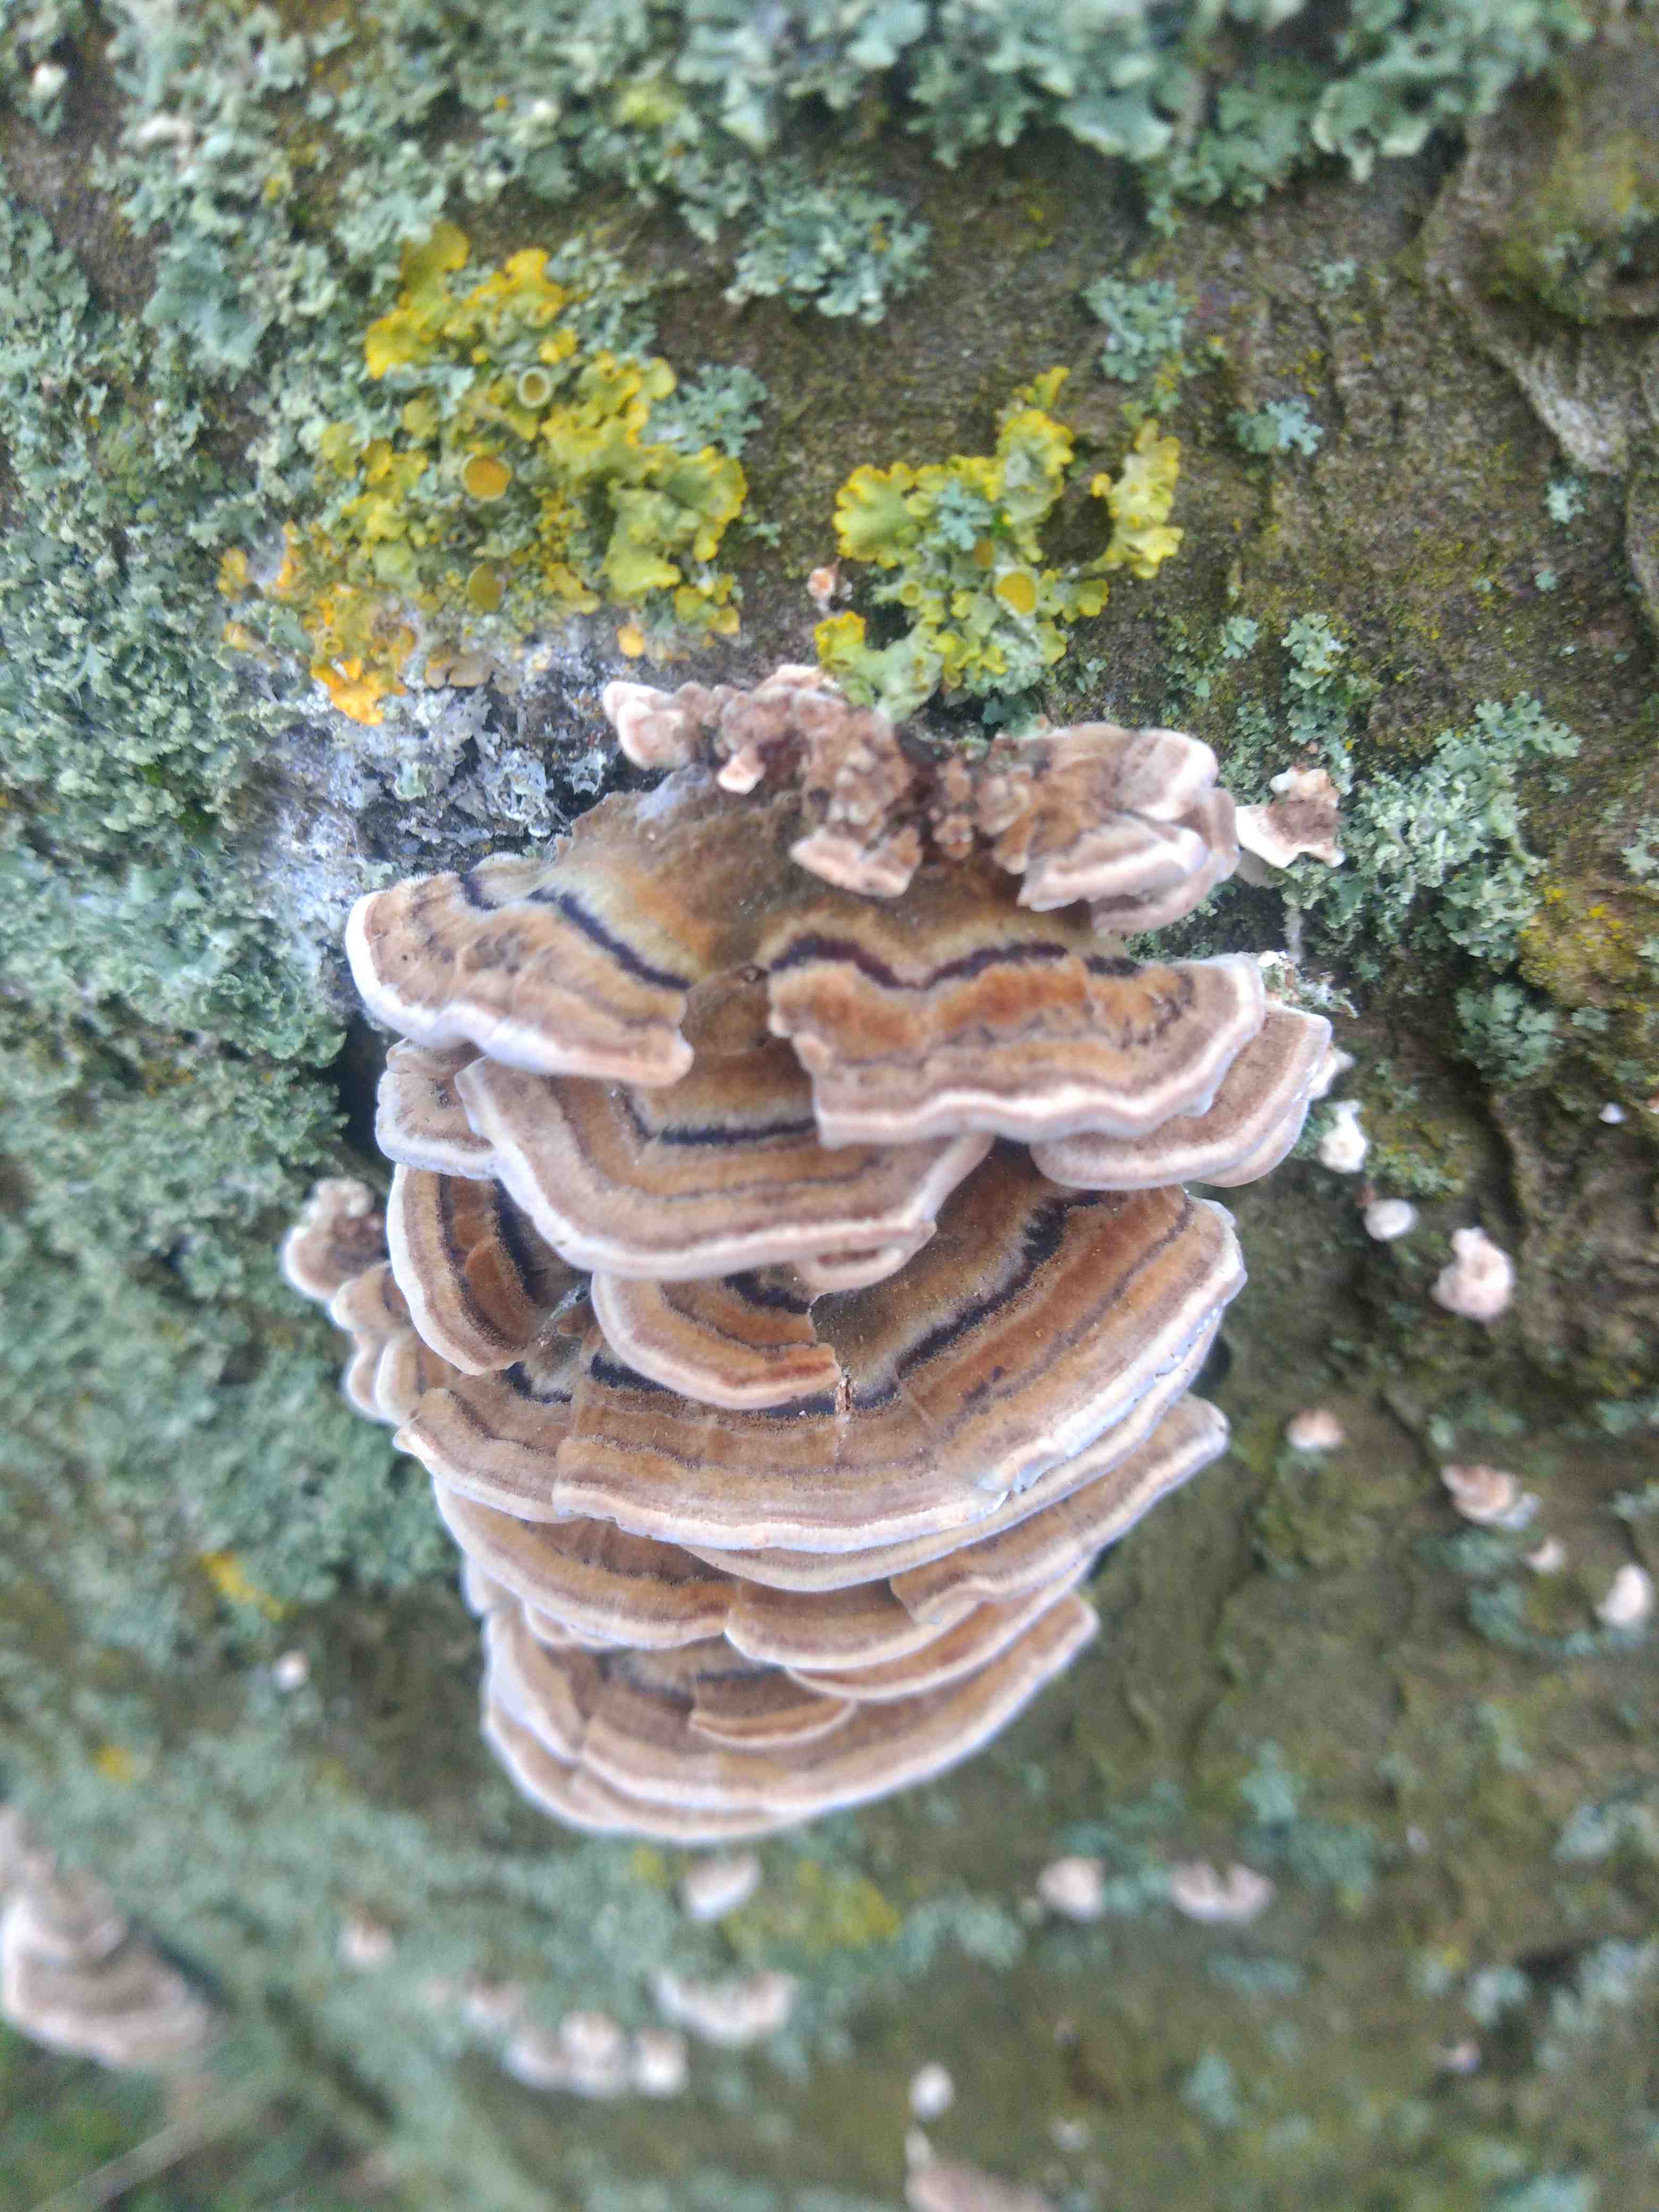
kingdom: Fungi
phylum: Basidiomycota
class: Agaricomycetes
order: Polyporales
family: Polyporaceae
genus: Trametes
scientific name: Trametes versicolor
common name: broget læderporesvamp
